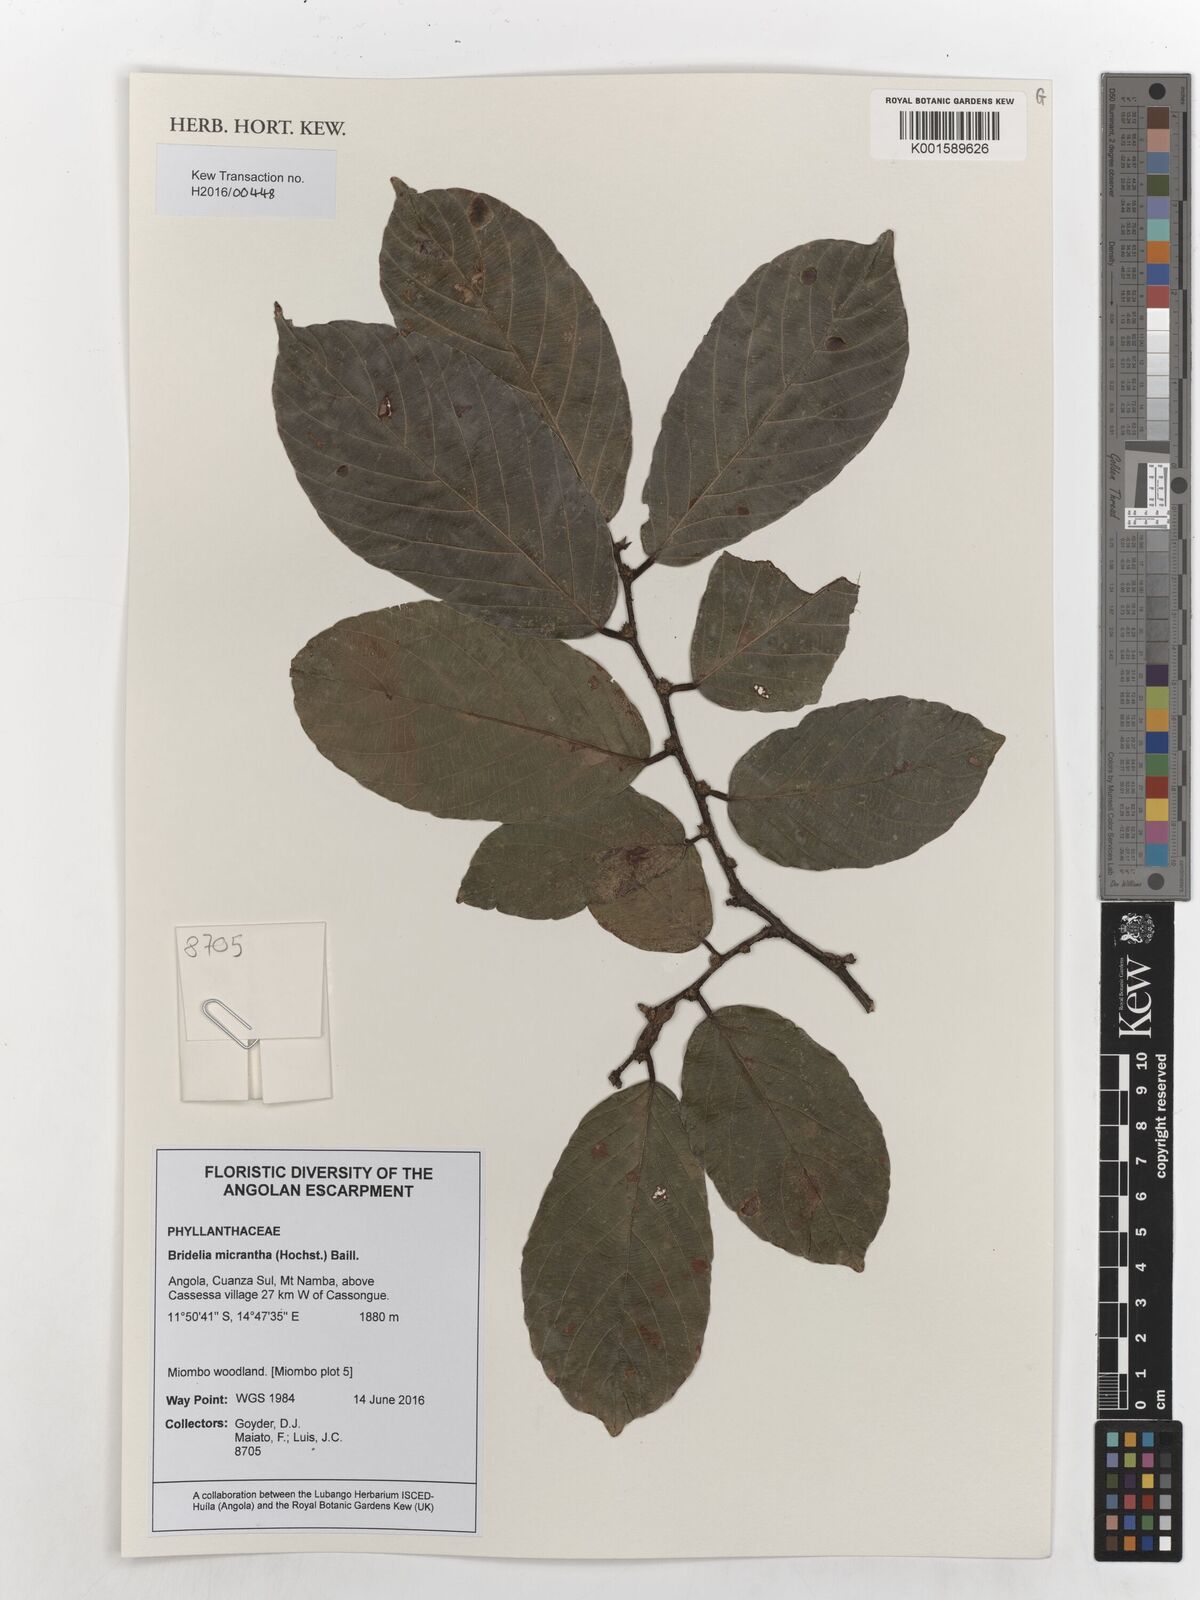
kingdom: Plantae
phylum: Tracheophyta
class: Magnoliopsida
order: Malpighiales
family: Phyllanthaceae
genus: Bridelia
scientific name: Bridelia micrantha
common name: Bridelia
